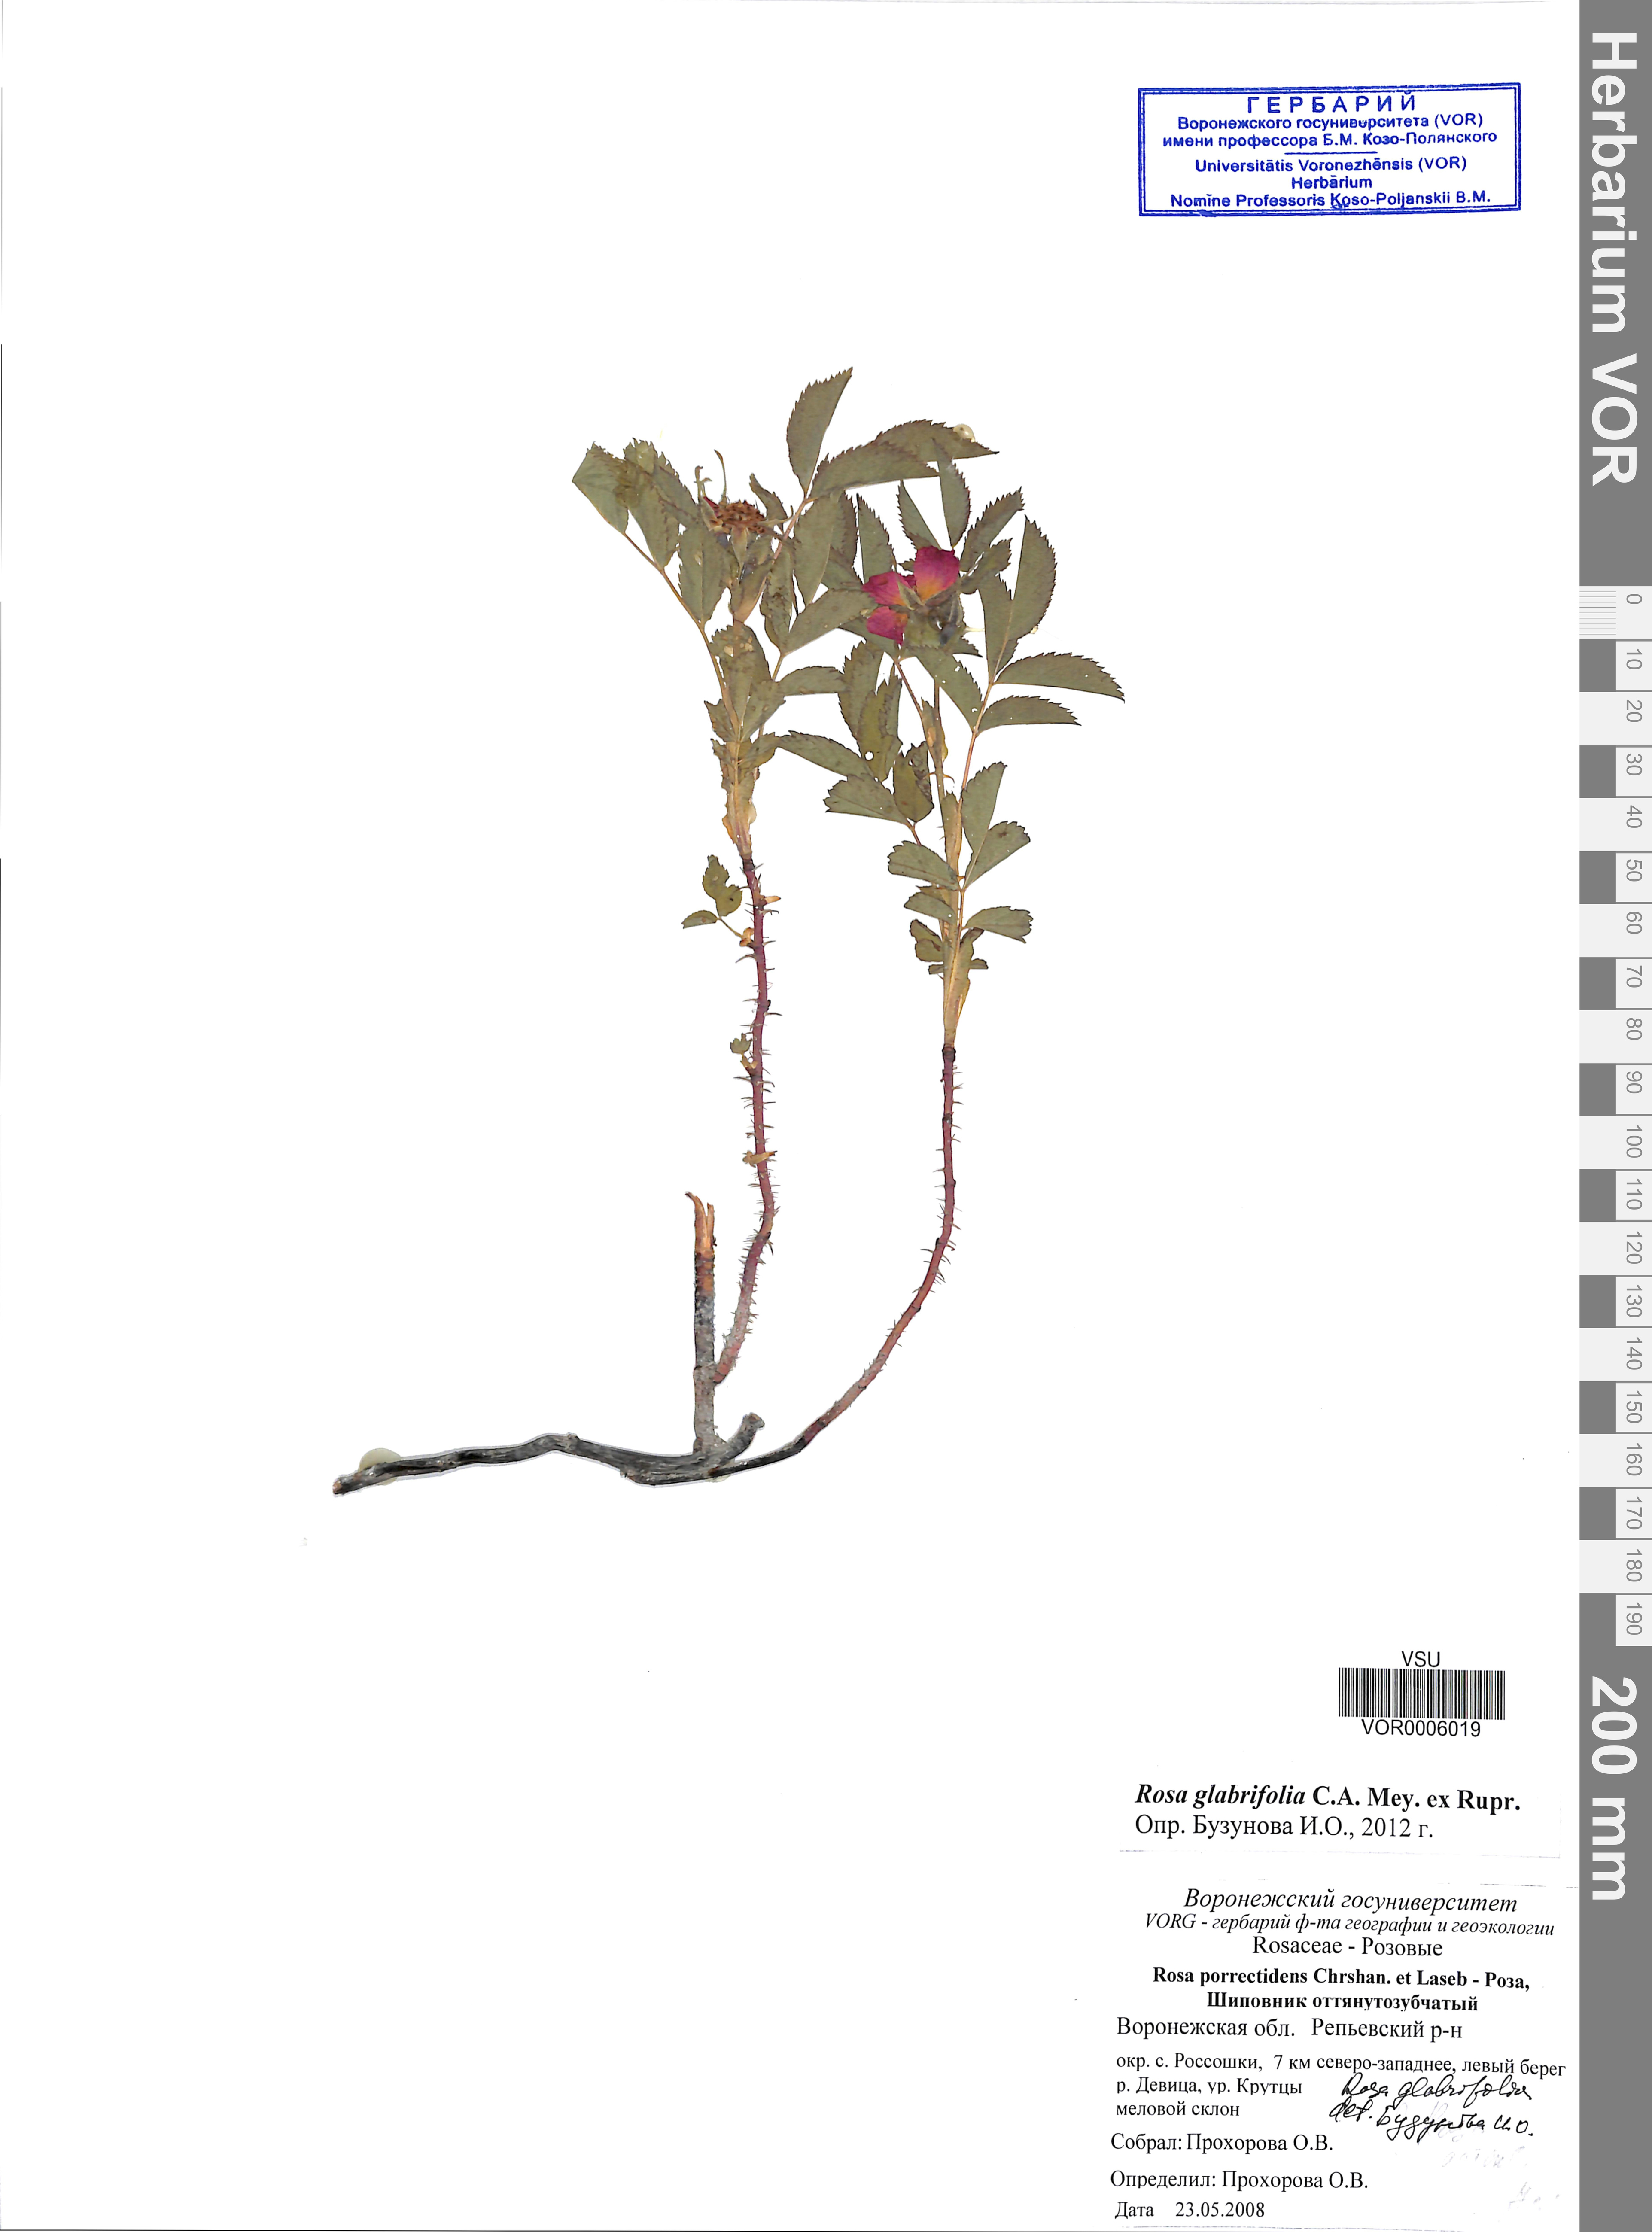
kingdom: Plantae
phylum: Tracheophyta
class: Magnoliopsida
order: Rosales
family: Rosaceae
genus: Rosa
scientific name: Rosa glabrifolia
